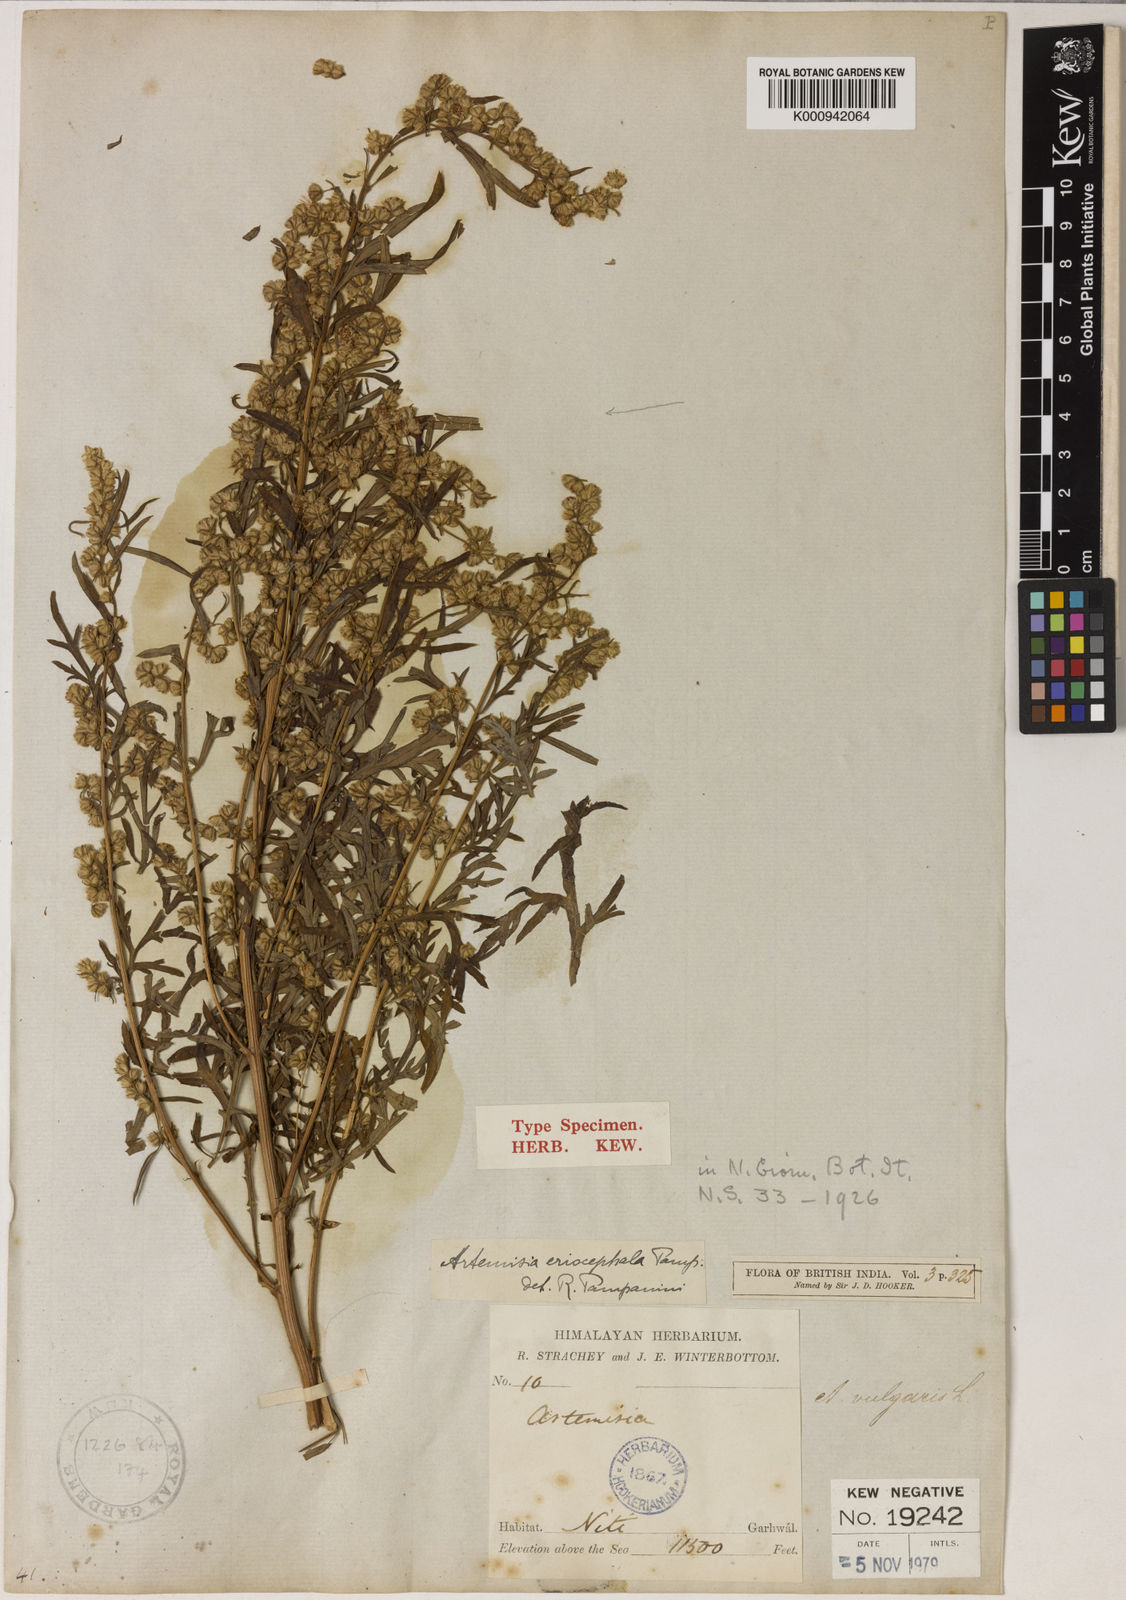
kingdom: Plantae
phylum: Tracheophyta
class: Magnoliopsida
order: Asterales
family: Asteraceae
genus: Artemisia
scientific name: Artemisia roxburghiana
